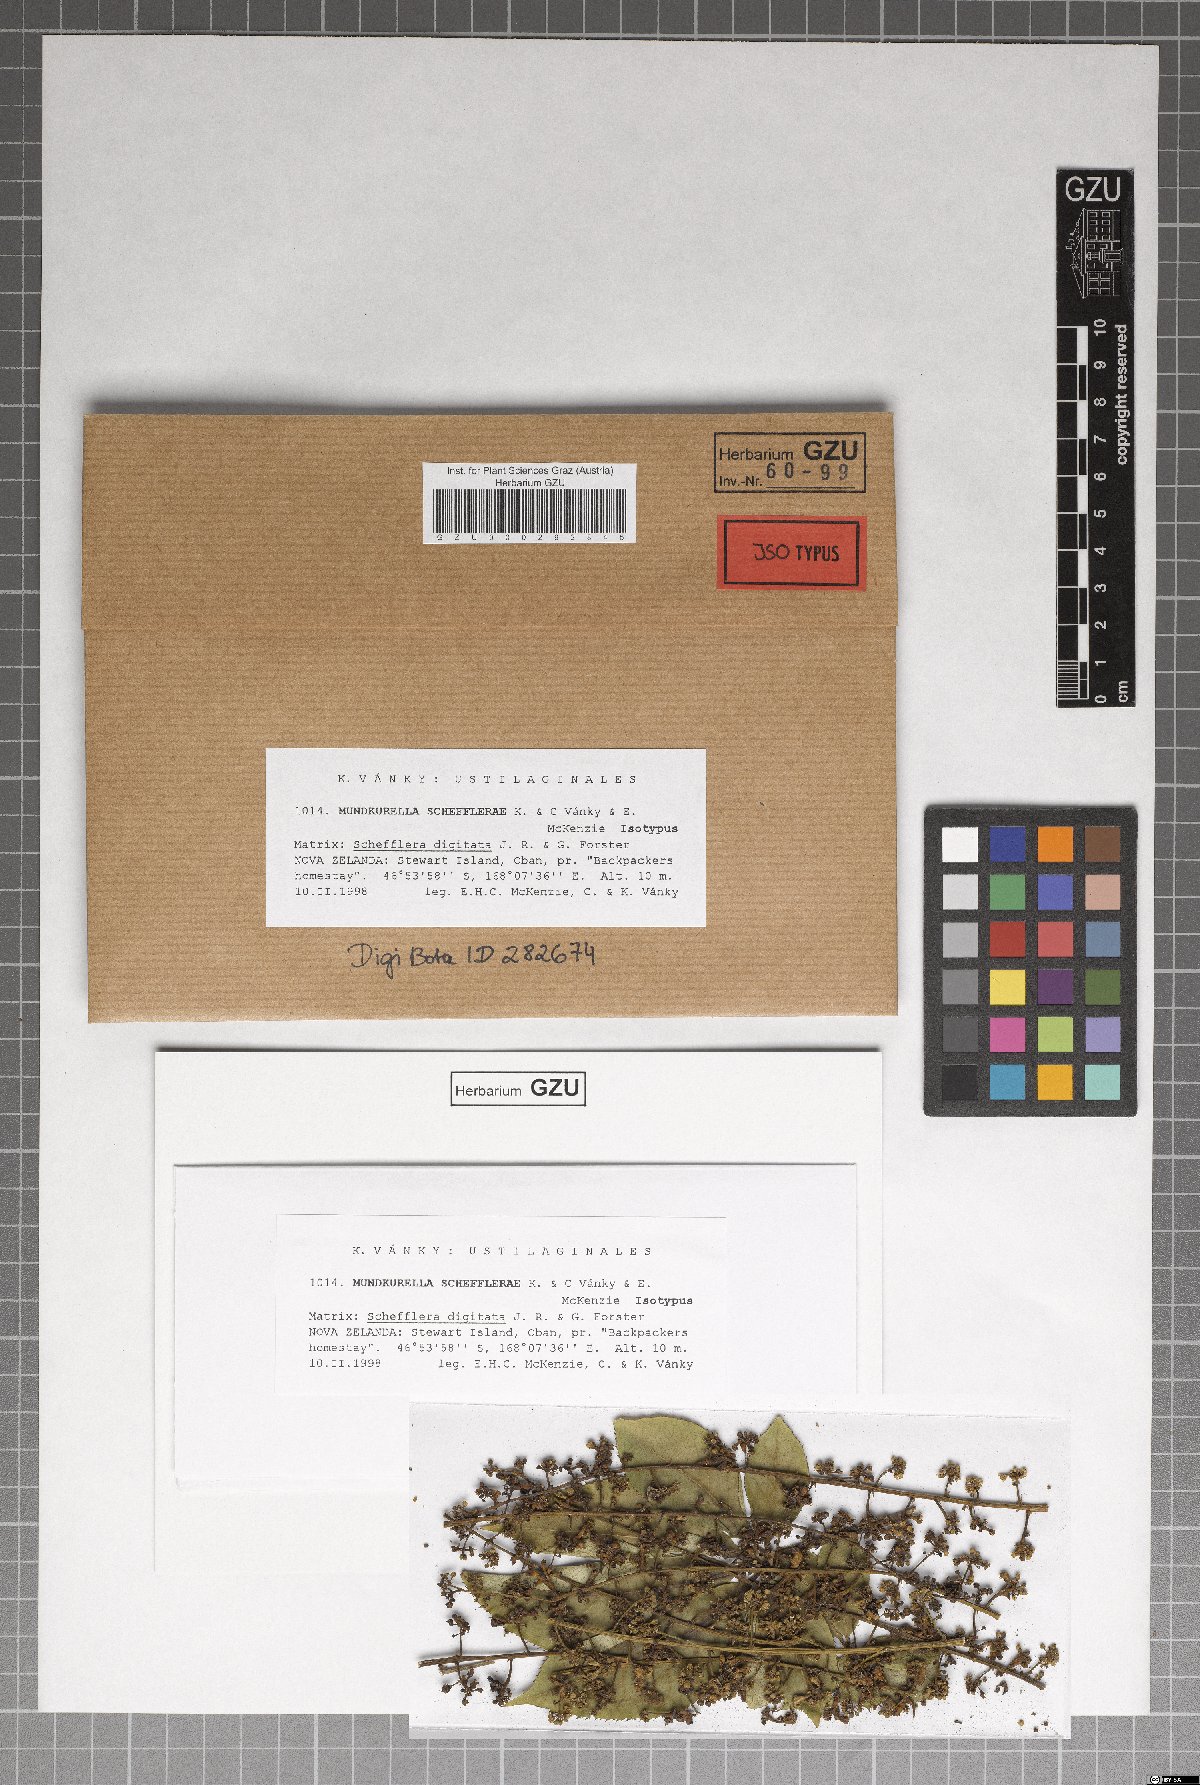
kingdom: Fungi
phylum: Basidiomycota
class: Ustilaginomycetes
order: Urocystidales
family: Urocystidaceae
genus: Mundkurella
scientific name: Mundkurella schefflerae
